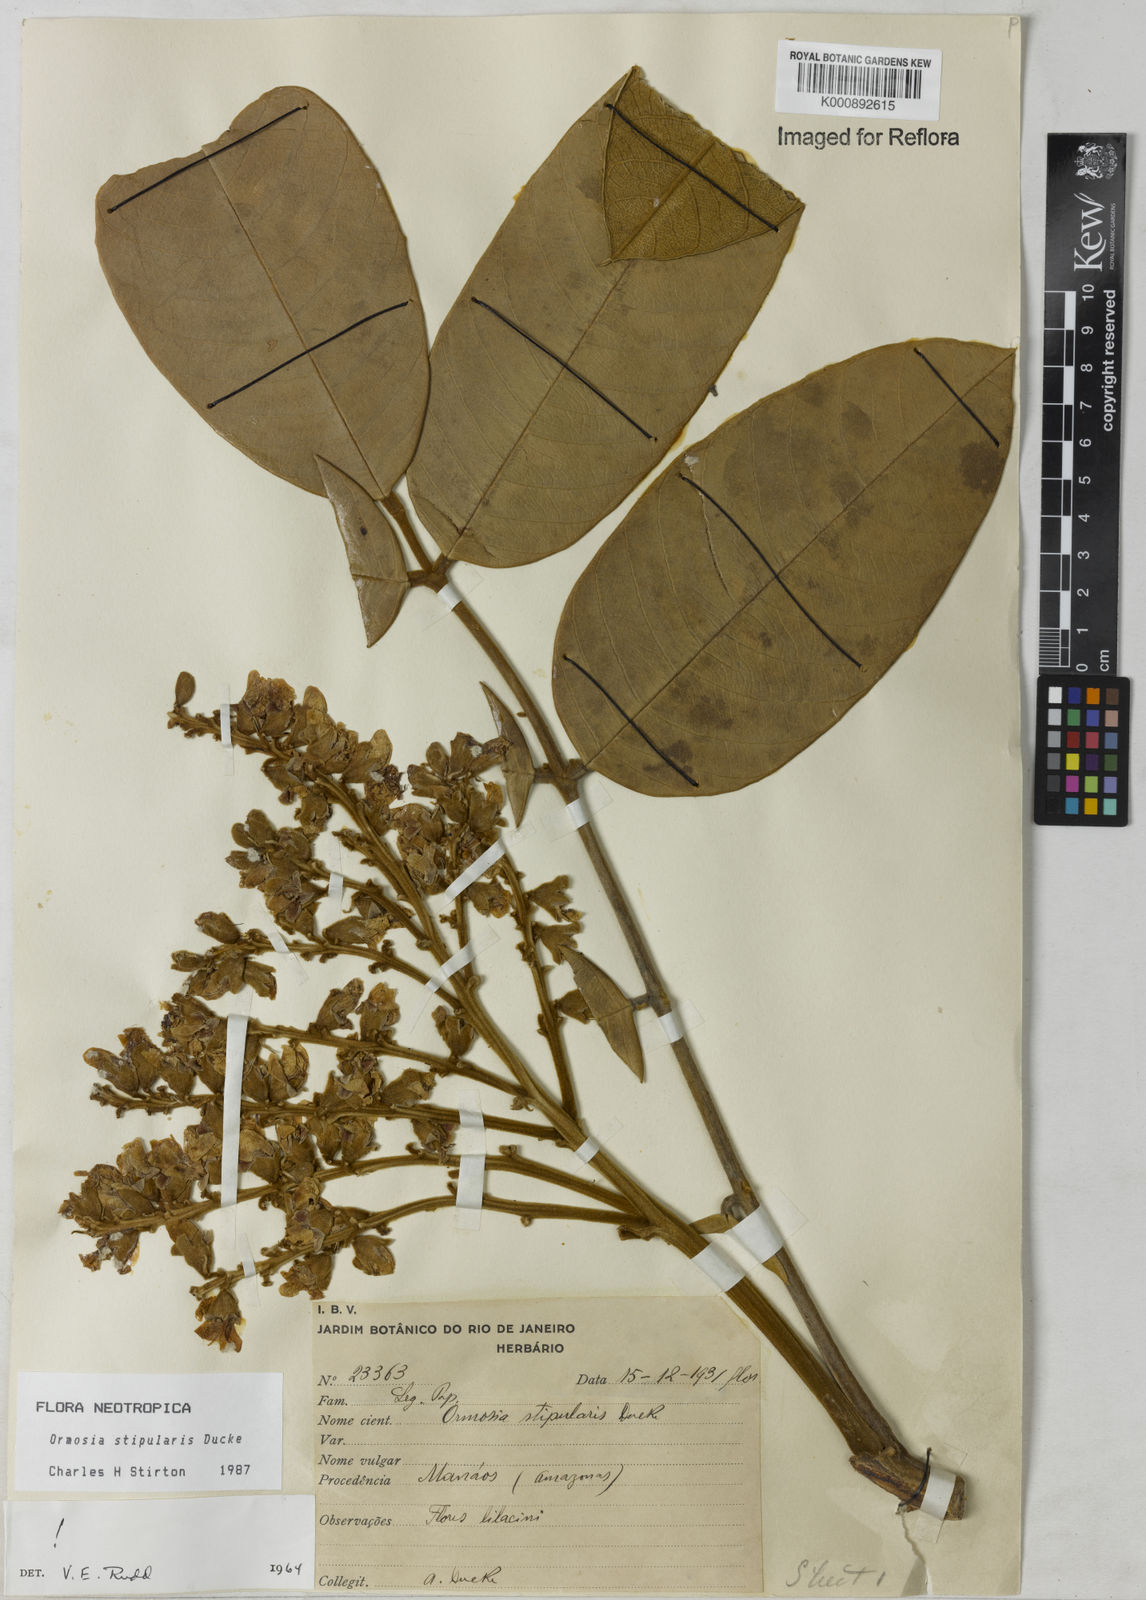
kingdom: Plantae
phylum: Tracheophyta
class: Magnoliopsida
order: Fabales
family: Fabaceae
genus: Ormosia
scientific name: Ormosia stipularis
